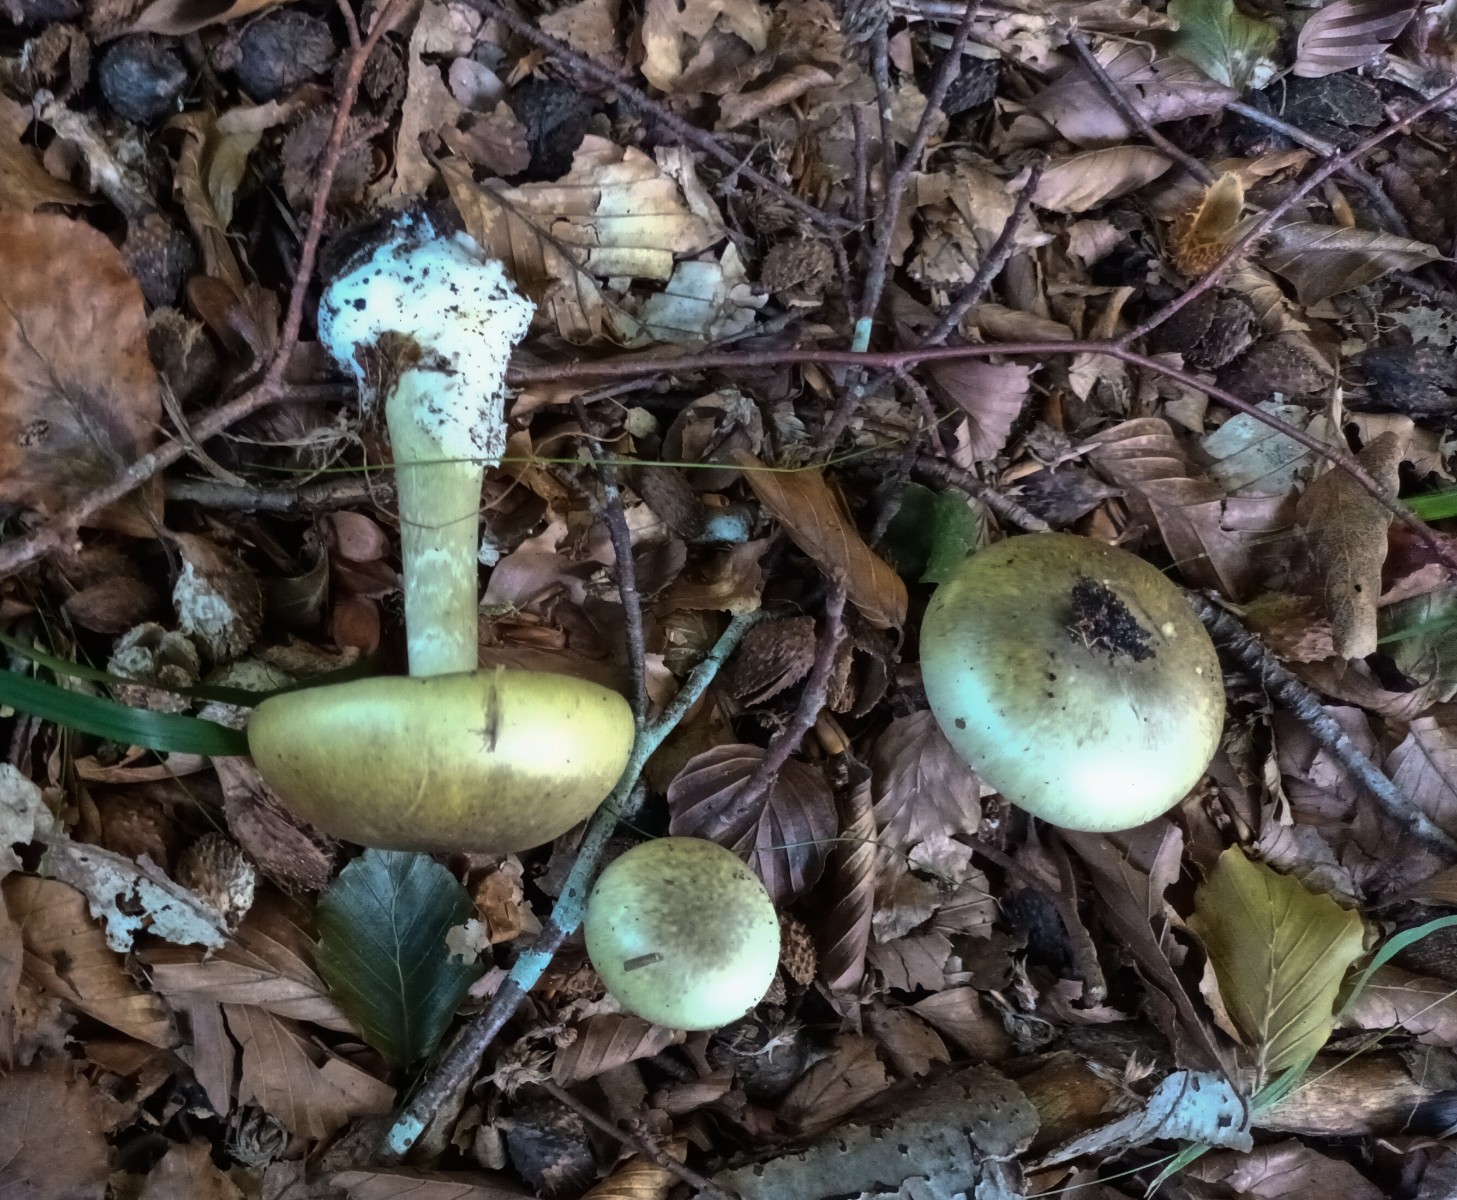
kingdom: Fungi
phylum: Basidiomycota
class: Agaricomycetes
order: Agaricales
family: Amanitaceae
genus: Amanita
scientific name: Amanita phalloides
